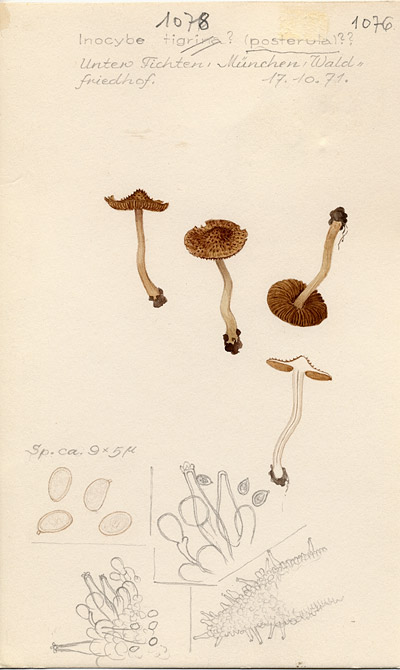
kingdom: Fungi
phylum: Basidiomycota
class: Agaricomycetes
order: Agaricales
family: Inocybaceae
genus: Inocybe
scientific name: Inocybe tigrina
